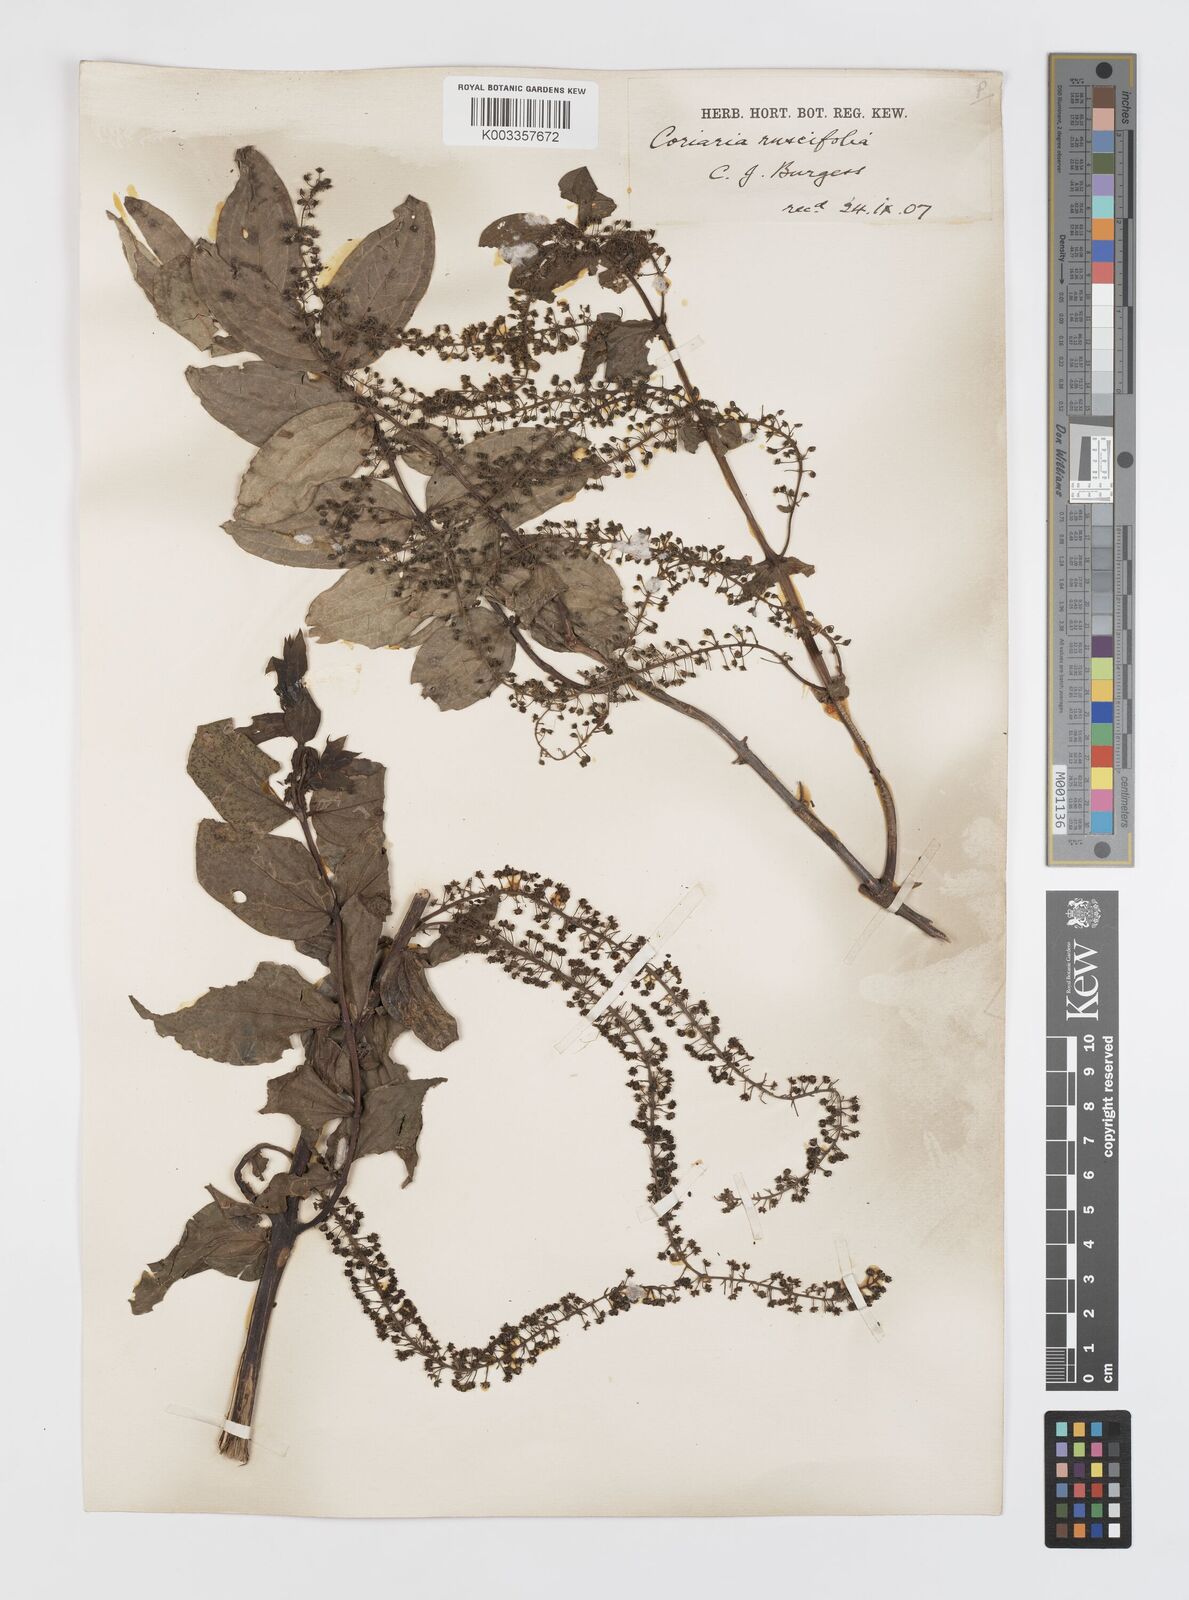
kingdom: Plantae
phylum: Tracheophyta
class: Magnoliopsida
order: Cucurbitales
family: Coriariaceae
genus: Coriaria
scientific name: Coriaria ruscifolia
